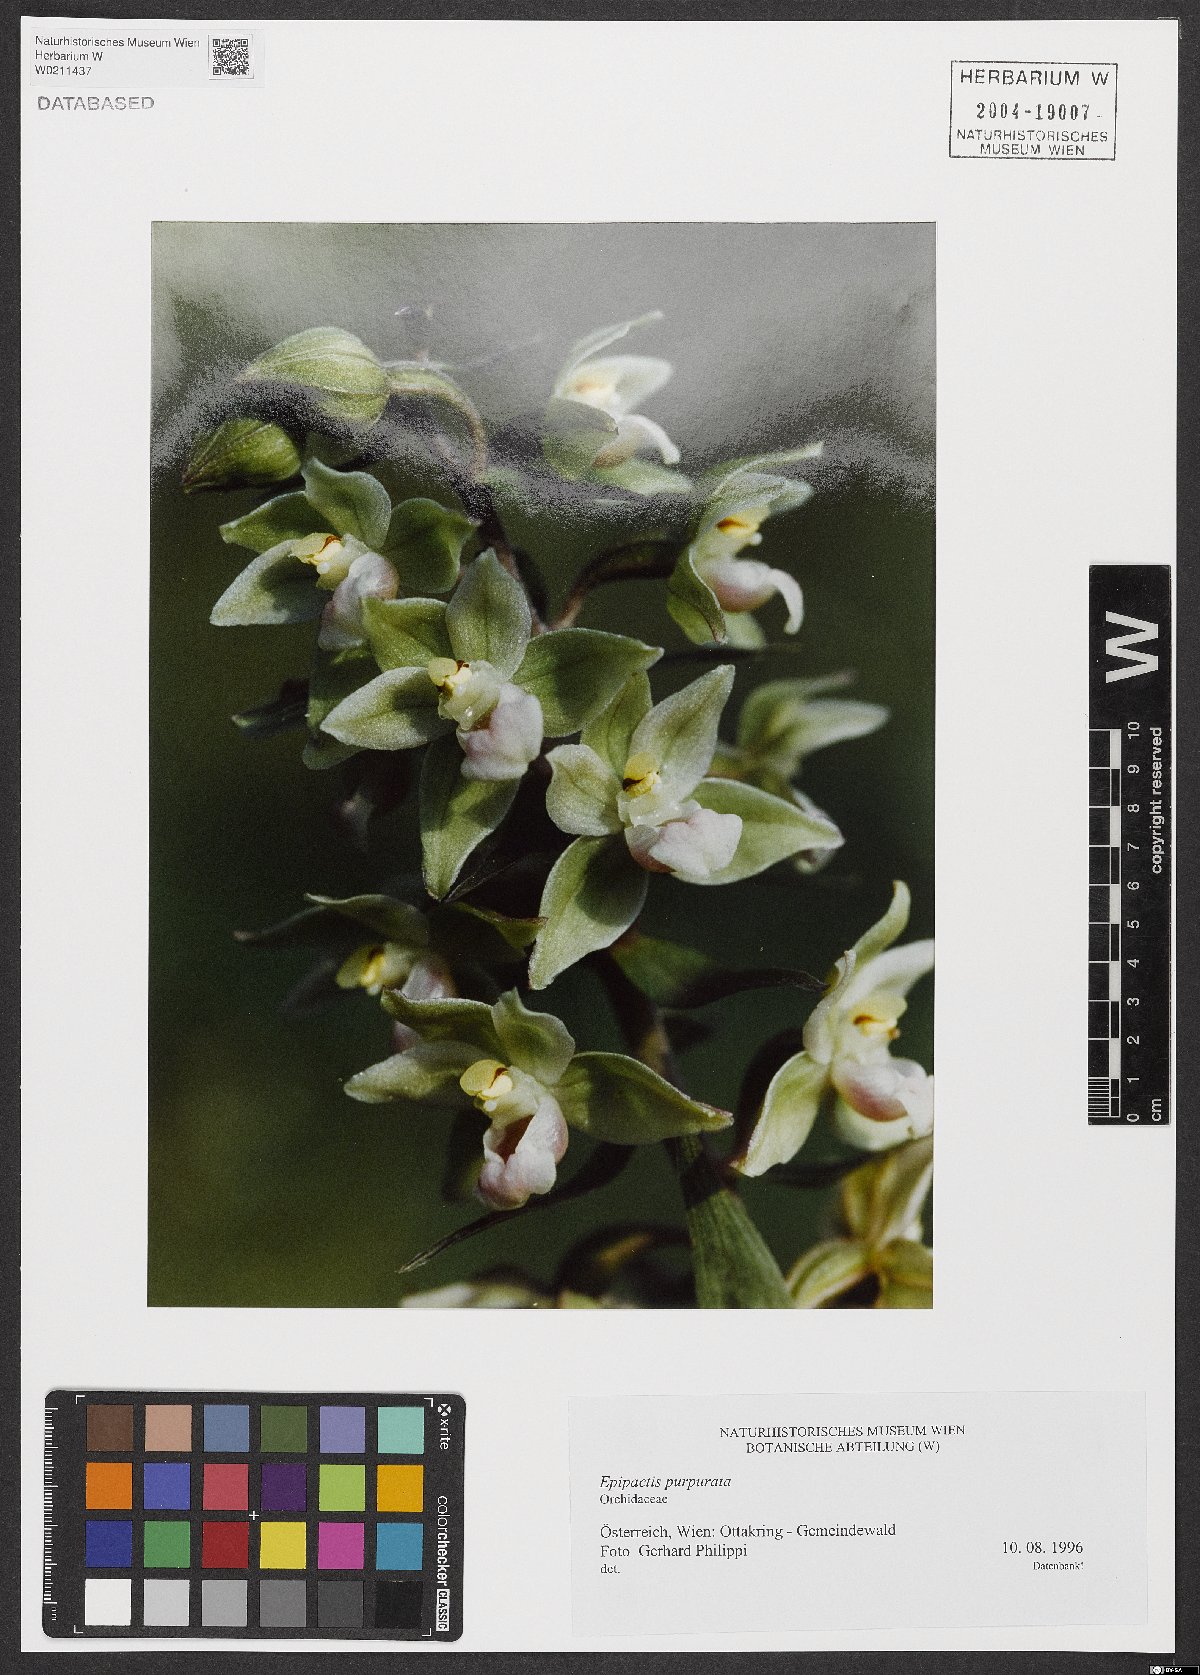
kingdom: Plantae
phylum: Tracheophyta
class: Liliopsida
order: Asparagales
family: Orchidaceae
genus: Epipactis
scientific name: Epipactis purpurata
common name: Violet helleborine
